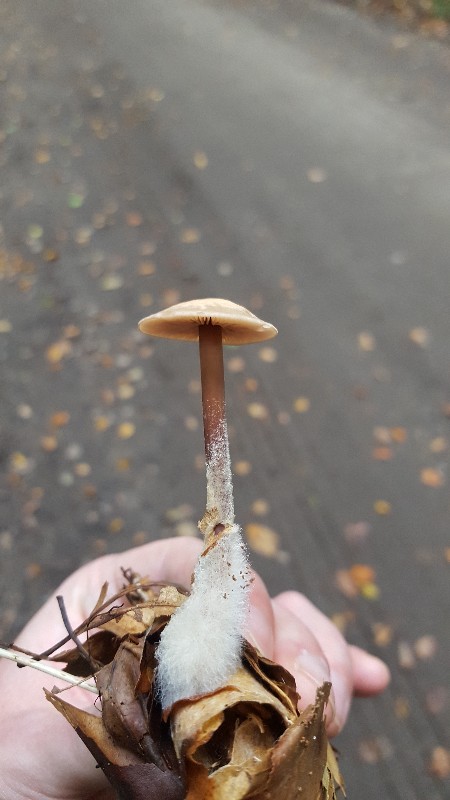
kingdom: Fungi
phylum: Basidiomycota
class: Agaricomycetes
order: Agaricales
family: Omphalotaceae
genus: Gymnopus
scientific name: Gymnopus fagiphilus
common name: bøgeløv-fladhat
